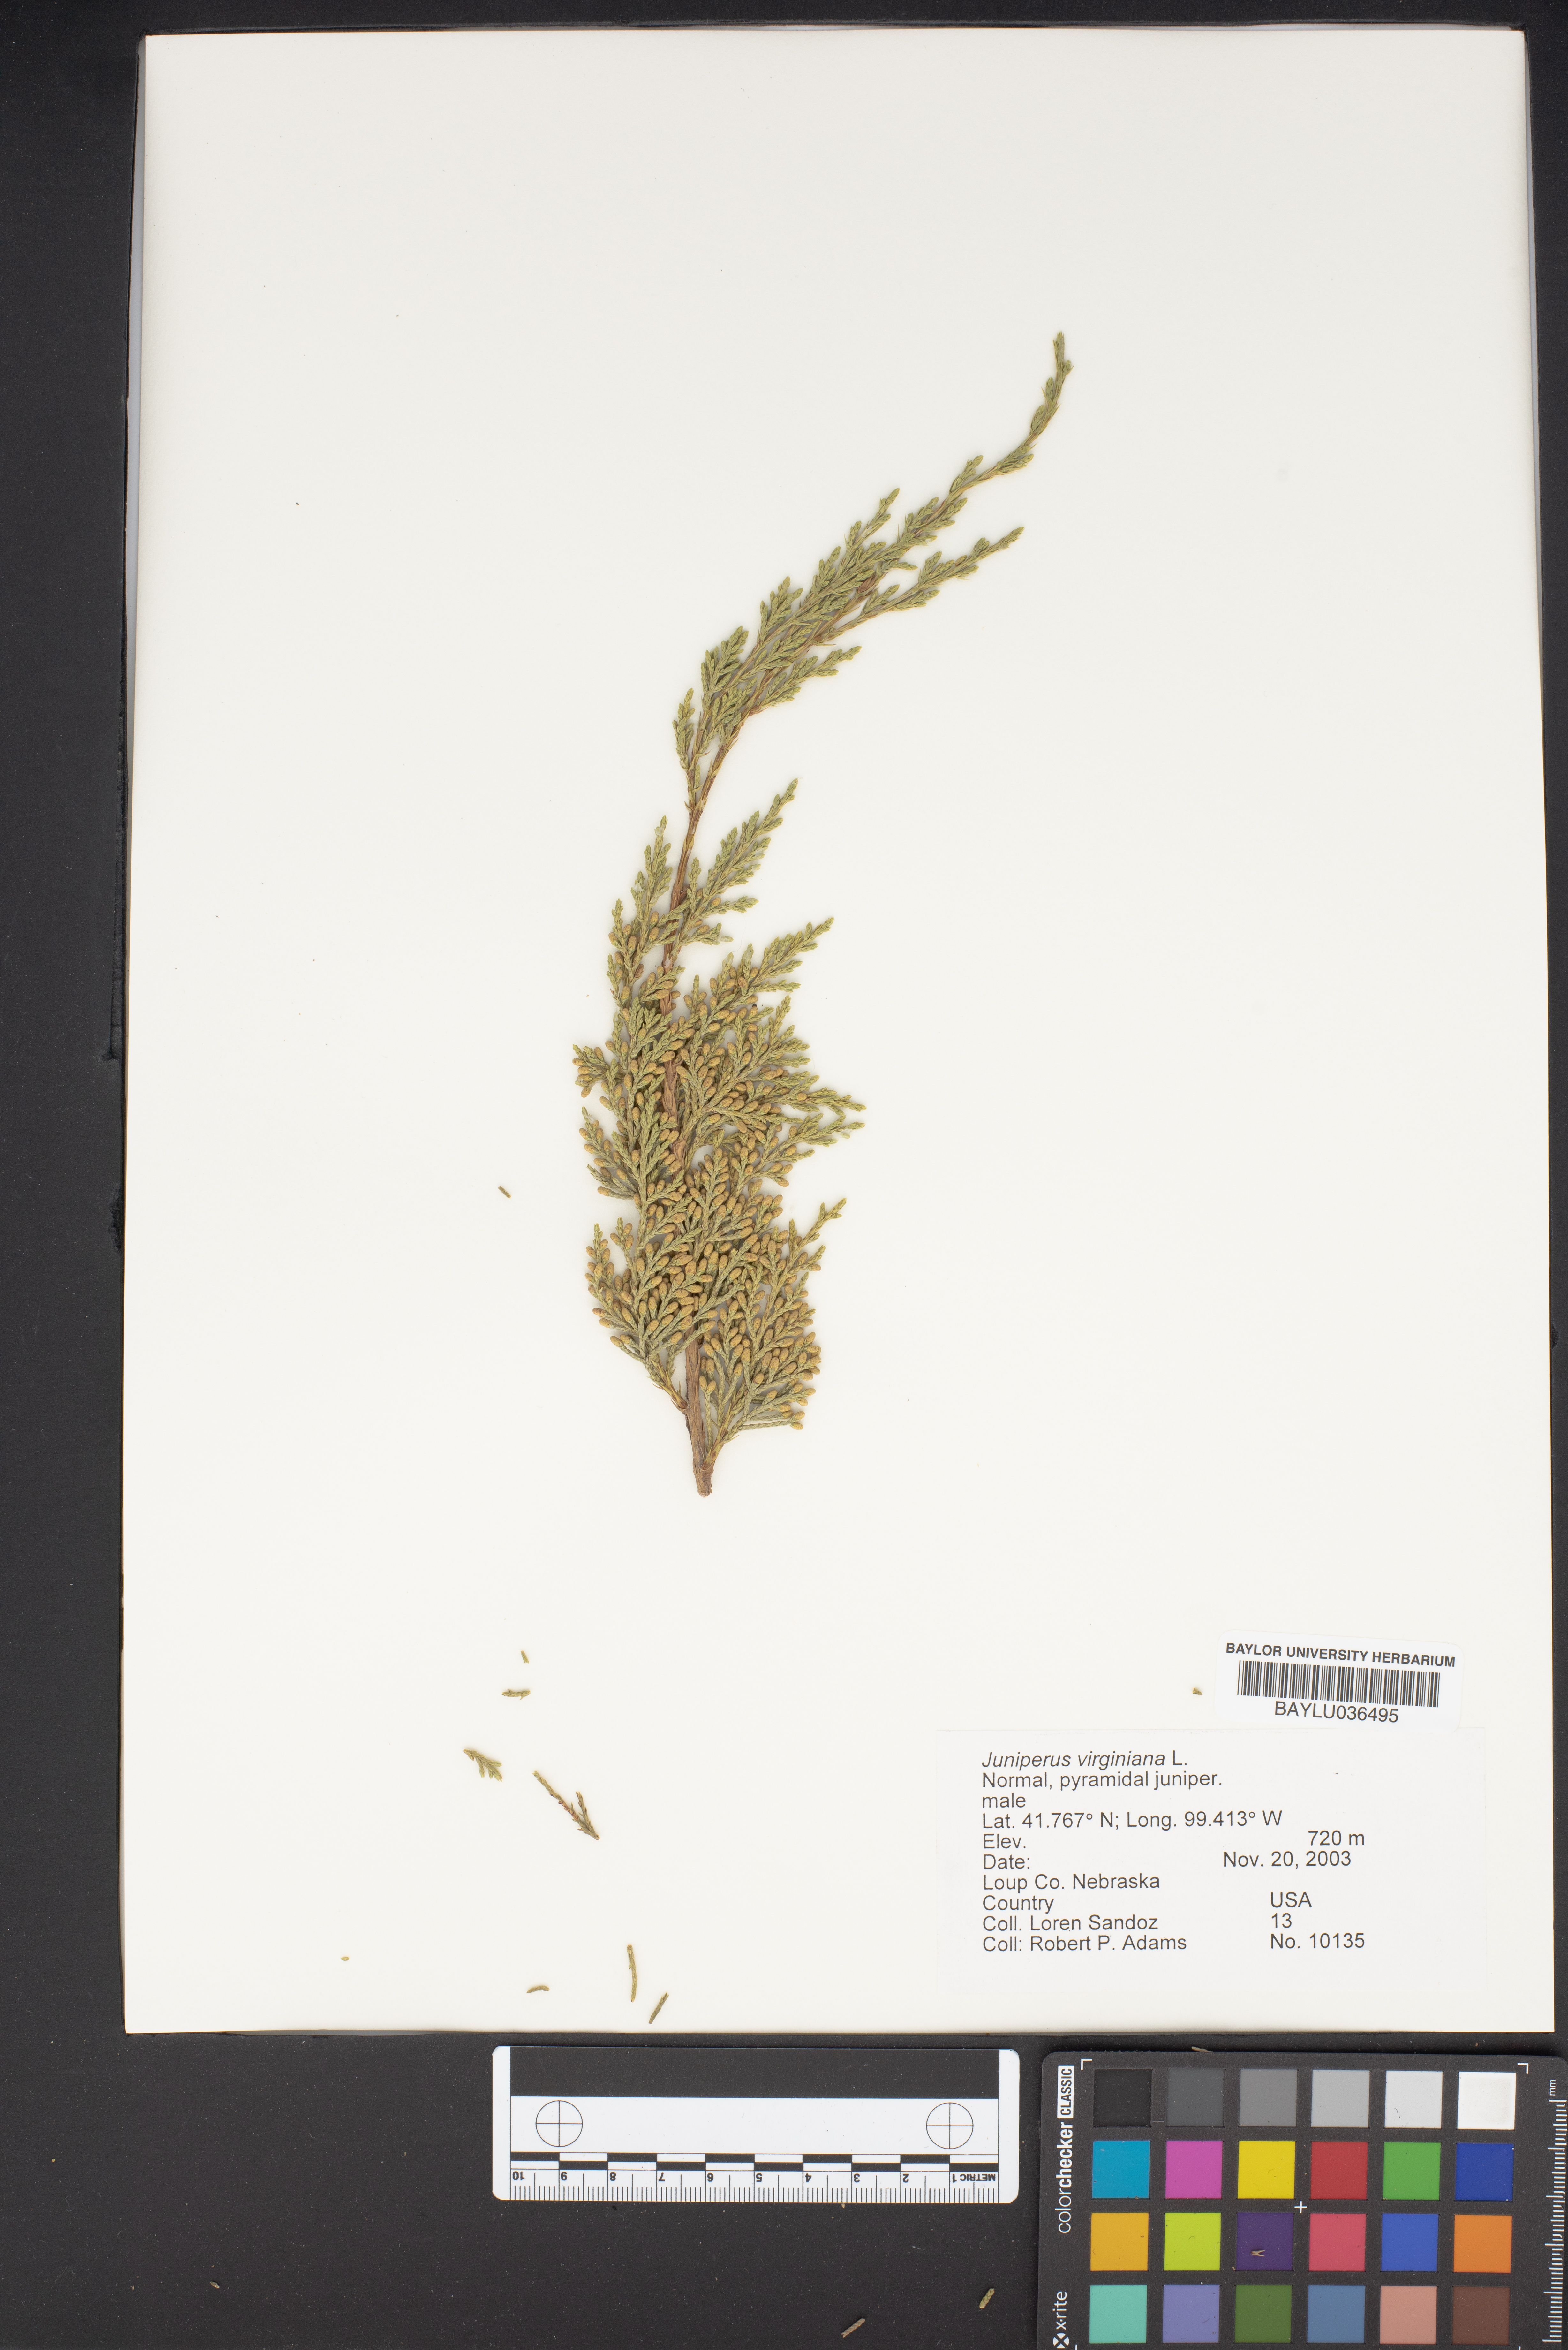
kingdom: Plantae
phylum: Tracheophyta
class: Pinopsida
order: Pinales
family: Cupressaceae
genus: Juniperus
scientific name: Juniperus virginiana
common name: Red juniper
